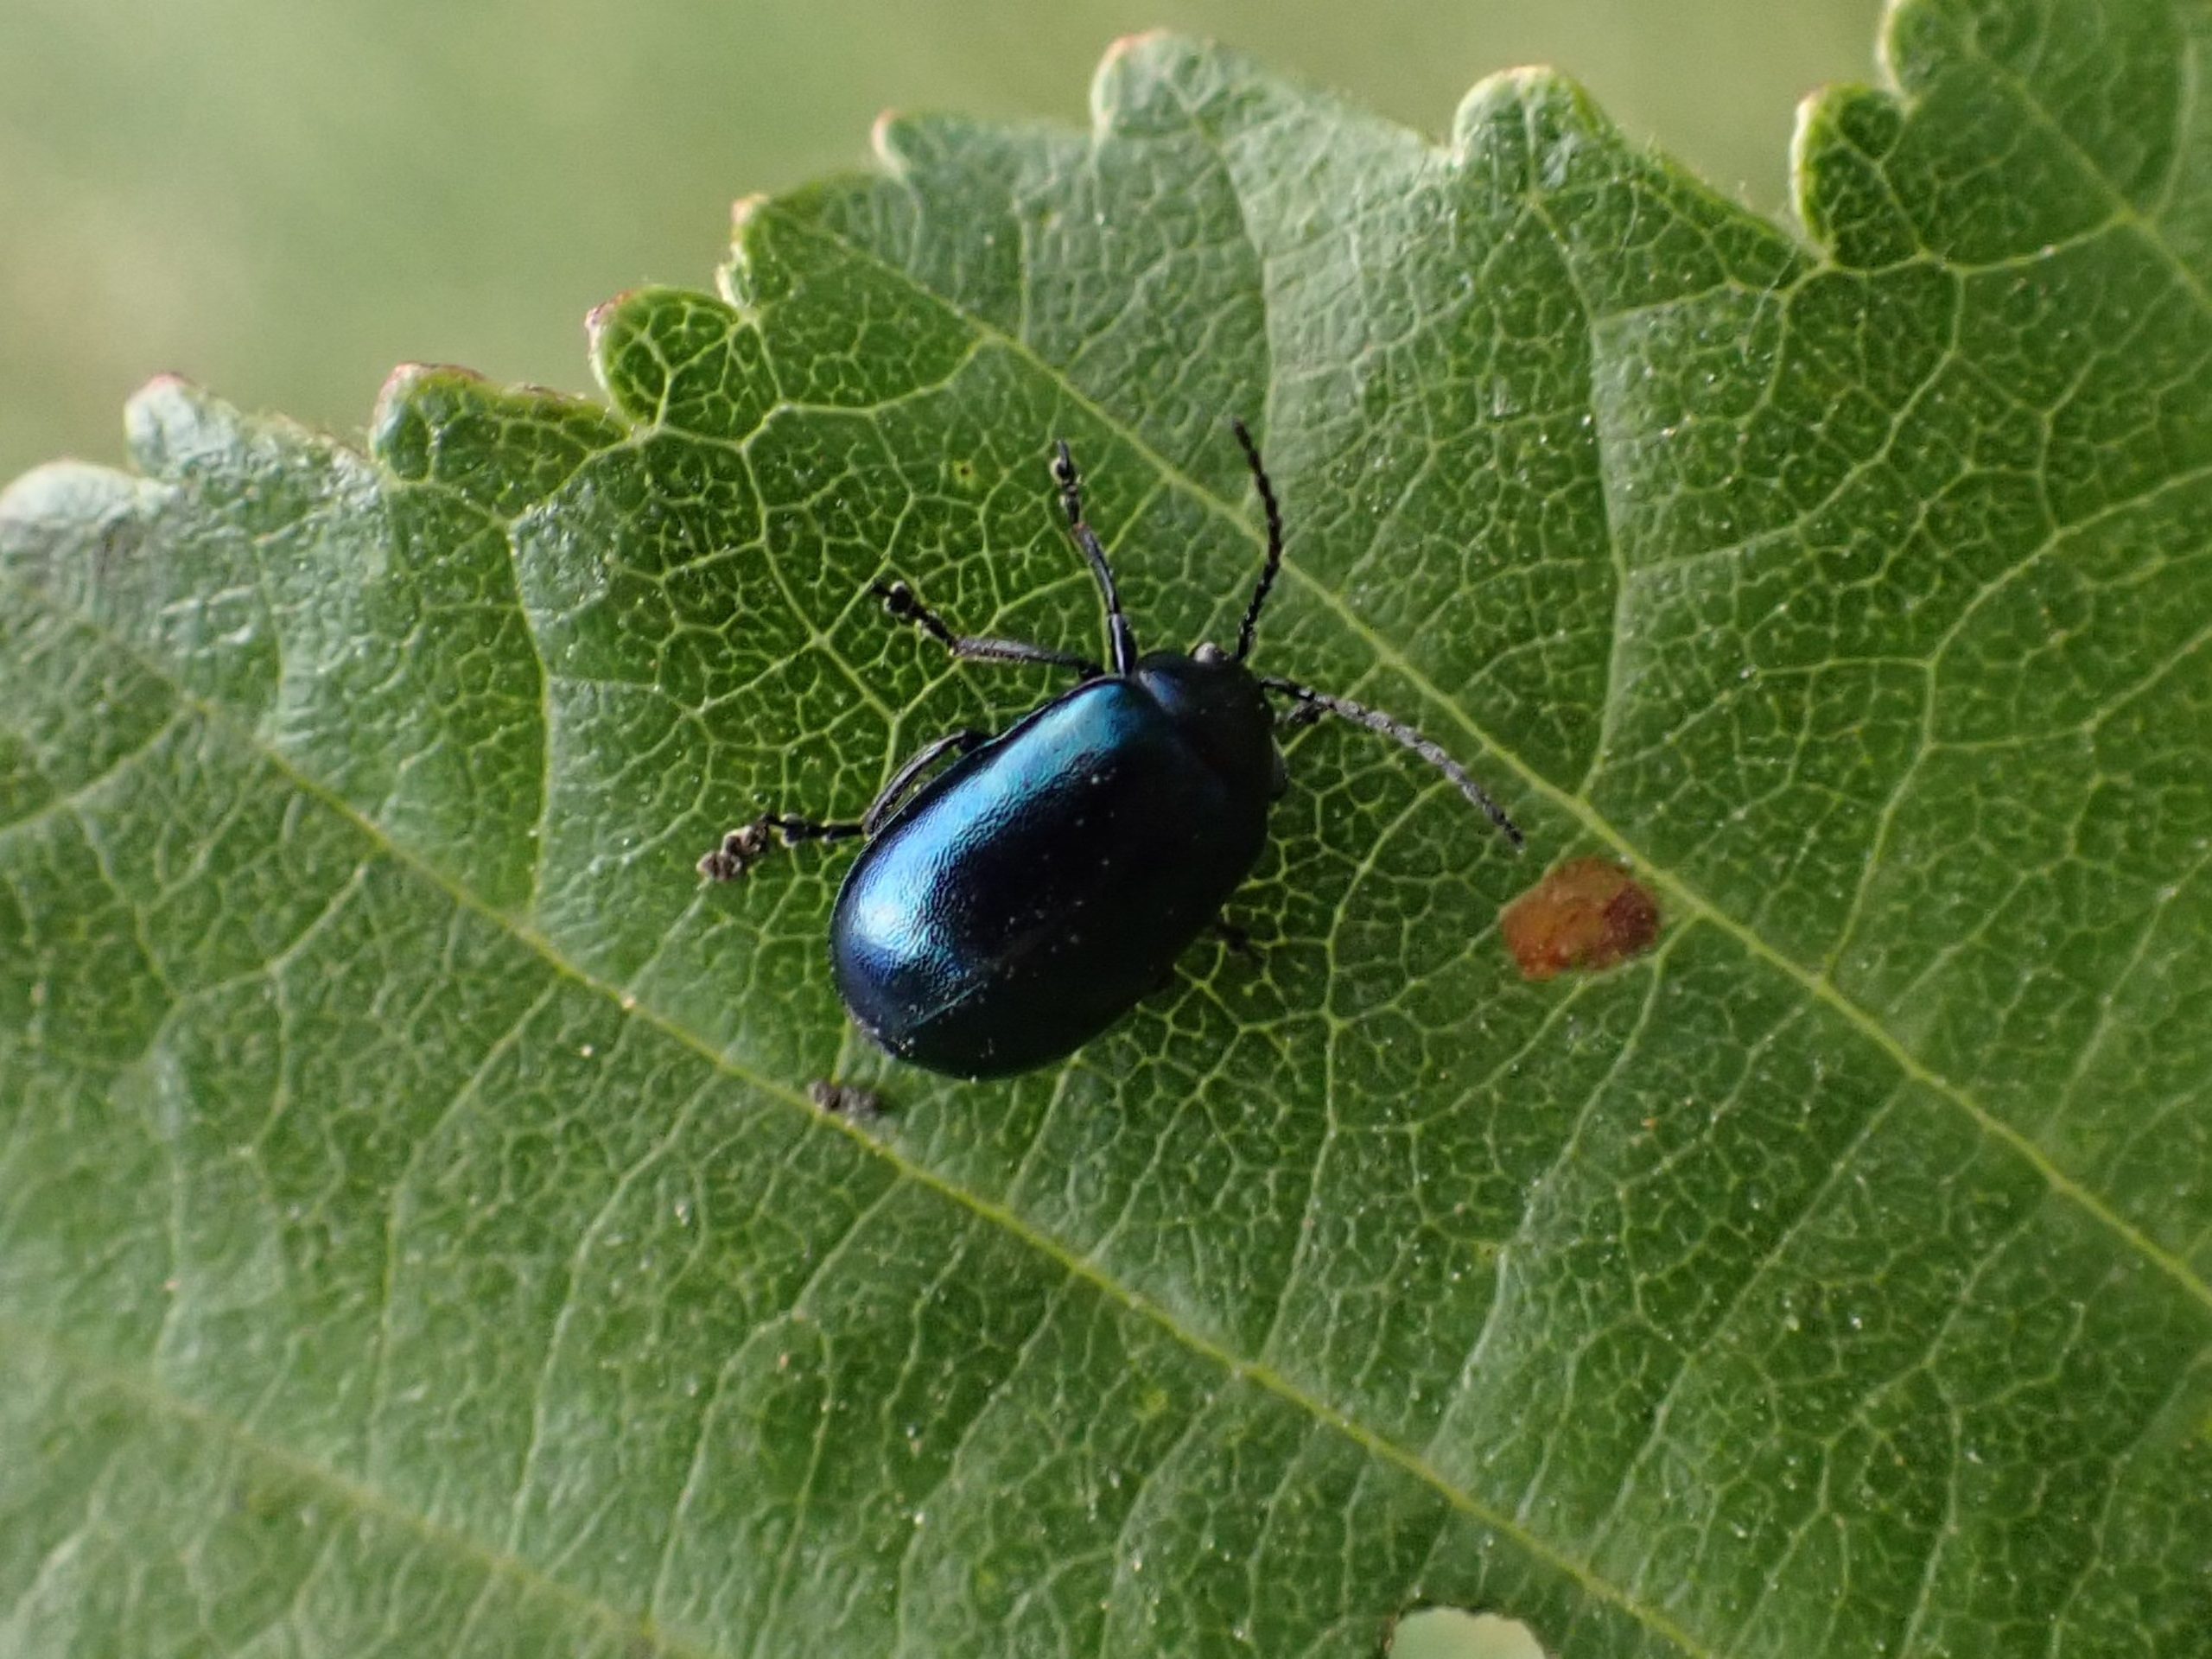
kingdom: Animalia
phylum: Arthropoda
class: Insecta
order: Coleoptera
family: Chrysomelidae
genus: Agelastica
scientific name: Agelastica alni
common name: Ellebladbille
